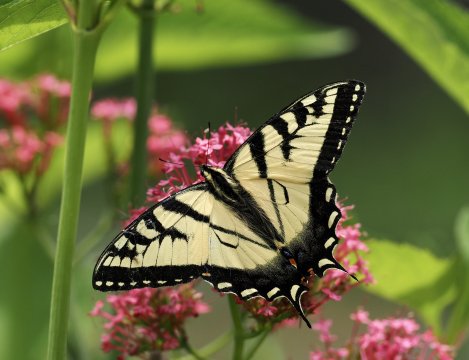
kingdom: Animalia
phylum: Arthropoda
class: Insecta
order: Lepidoptera
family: Papilionidae
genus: Papilio
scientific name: Papilio
